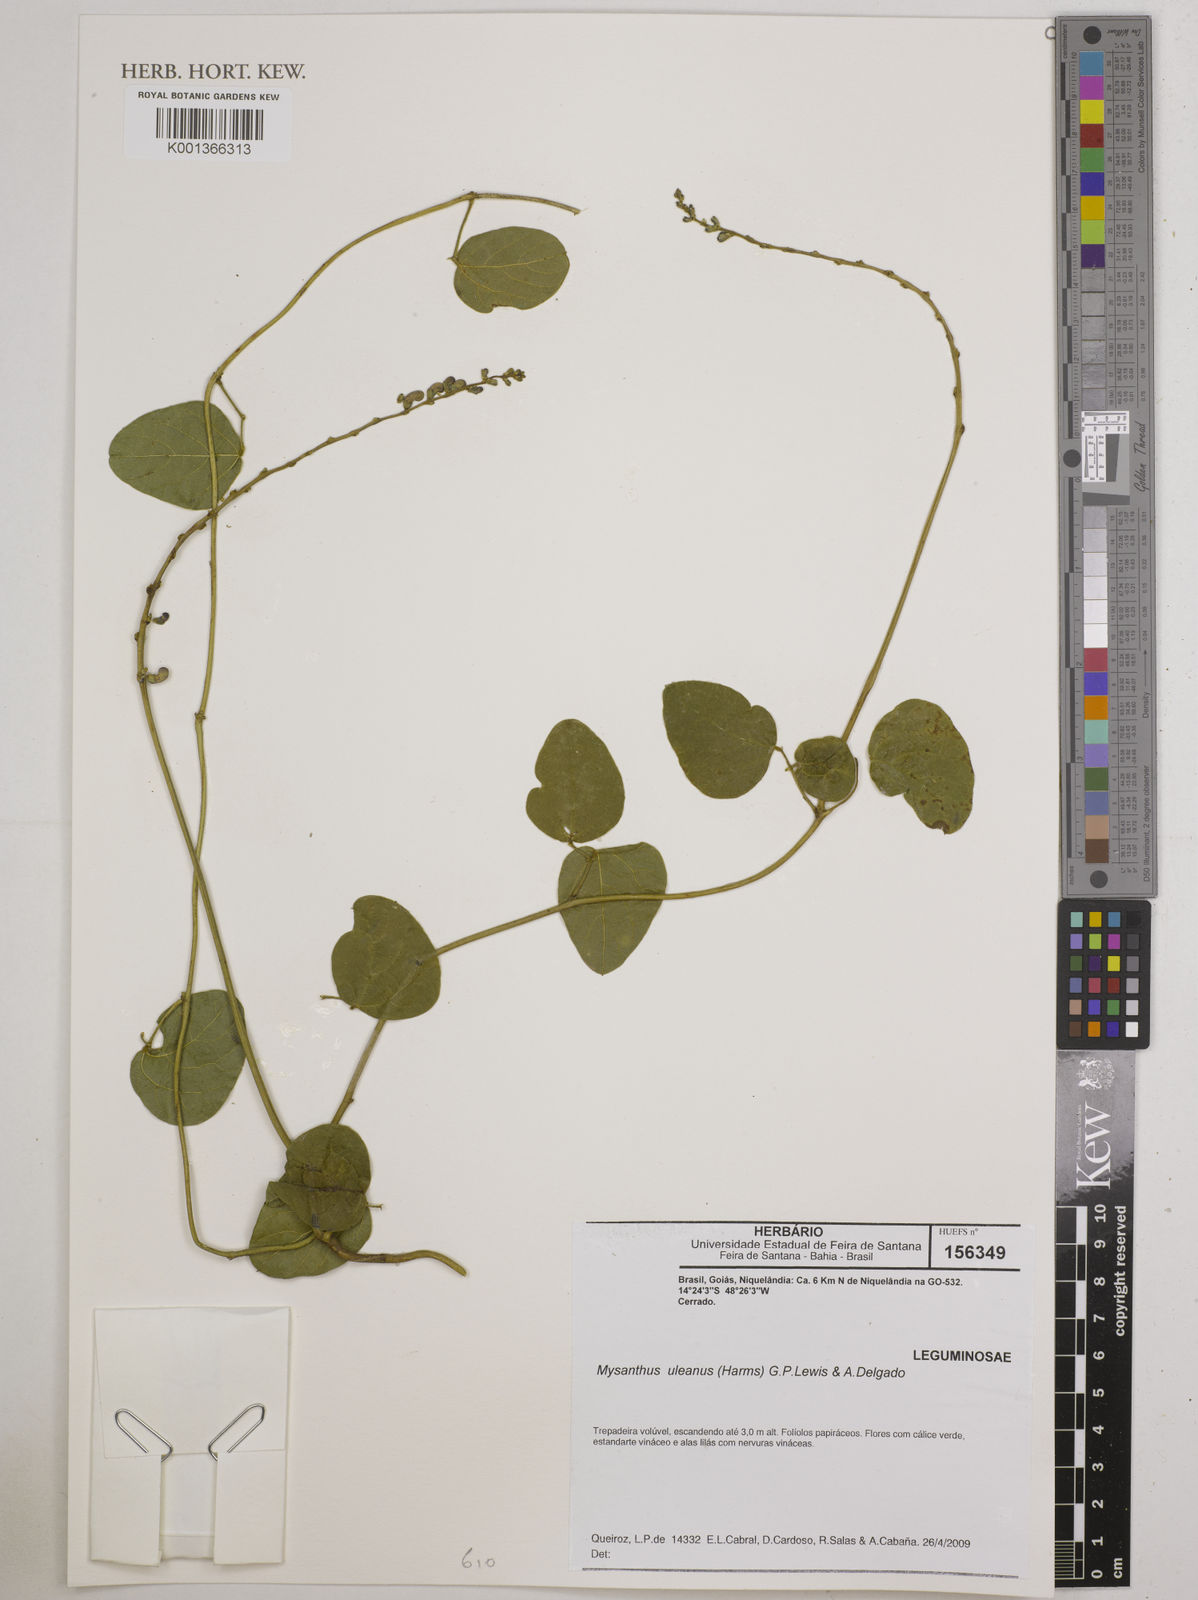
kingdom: Plantae
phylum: Tracheophyta
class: Magnoliopsida
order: Fabales
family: Fabaceae
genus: Mysanthus
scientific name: Mysanthus uleanus
